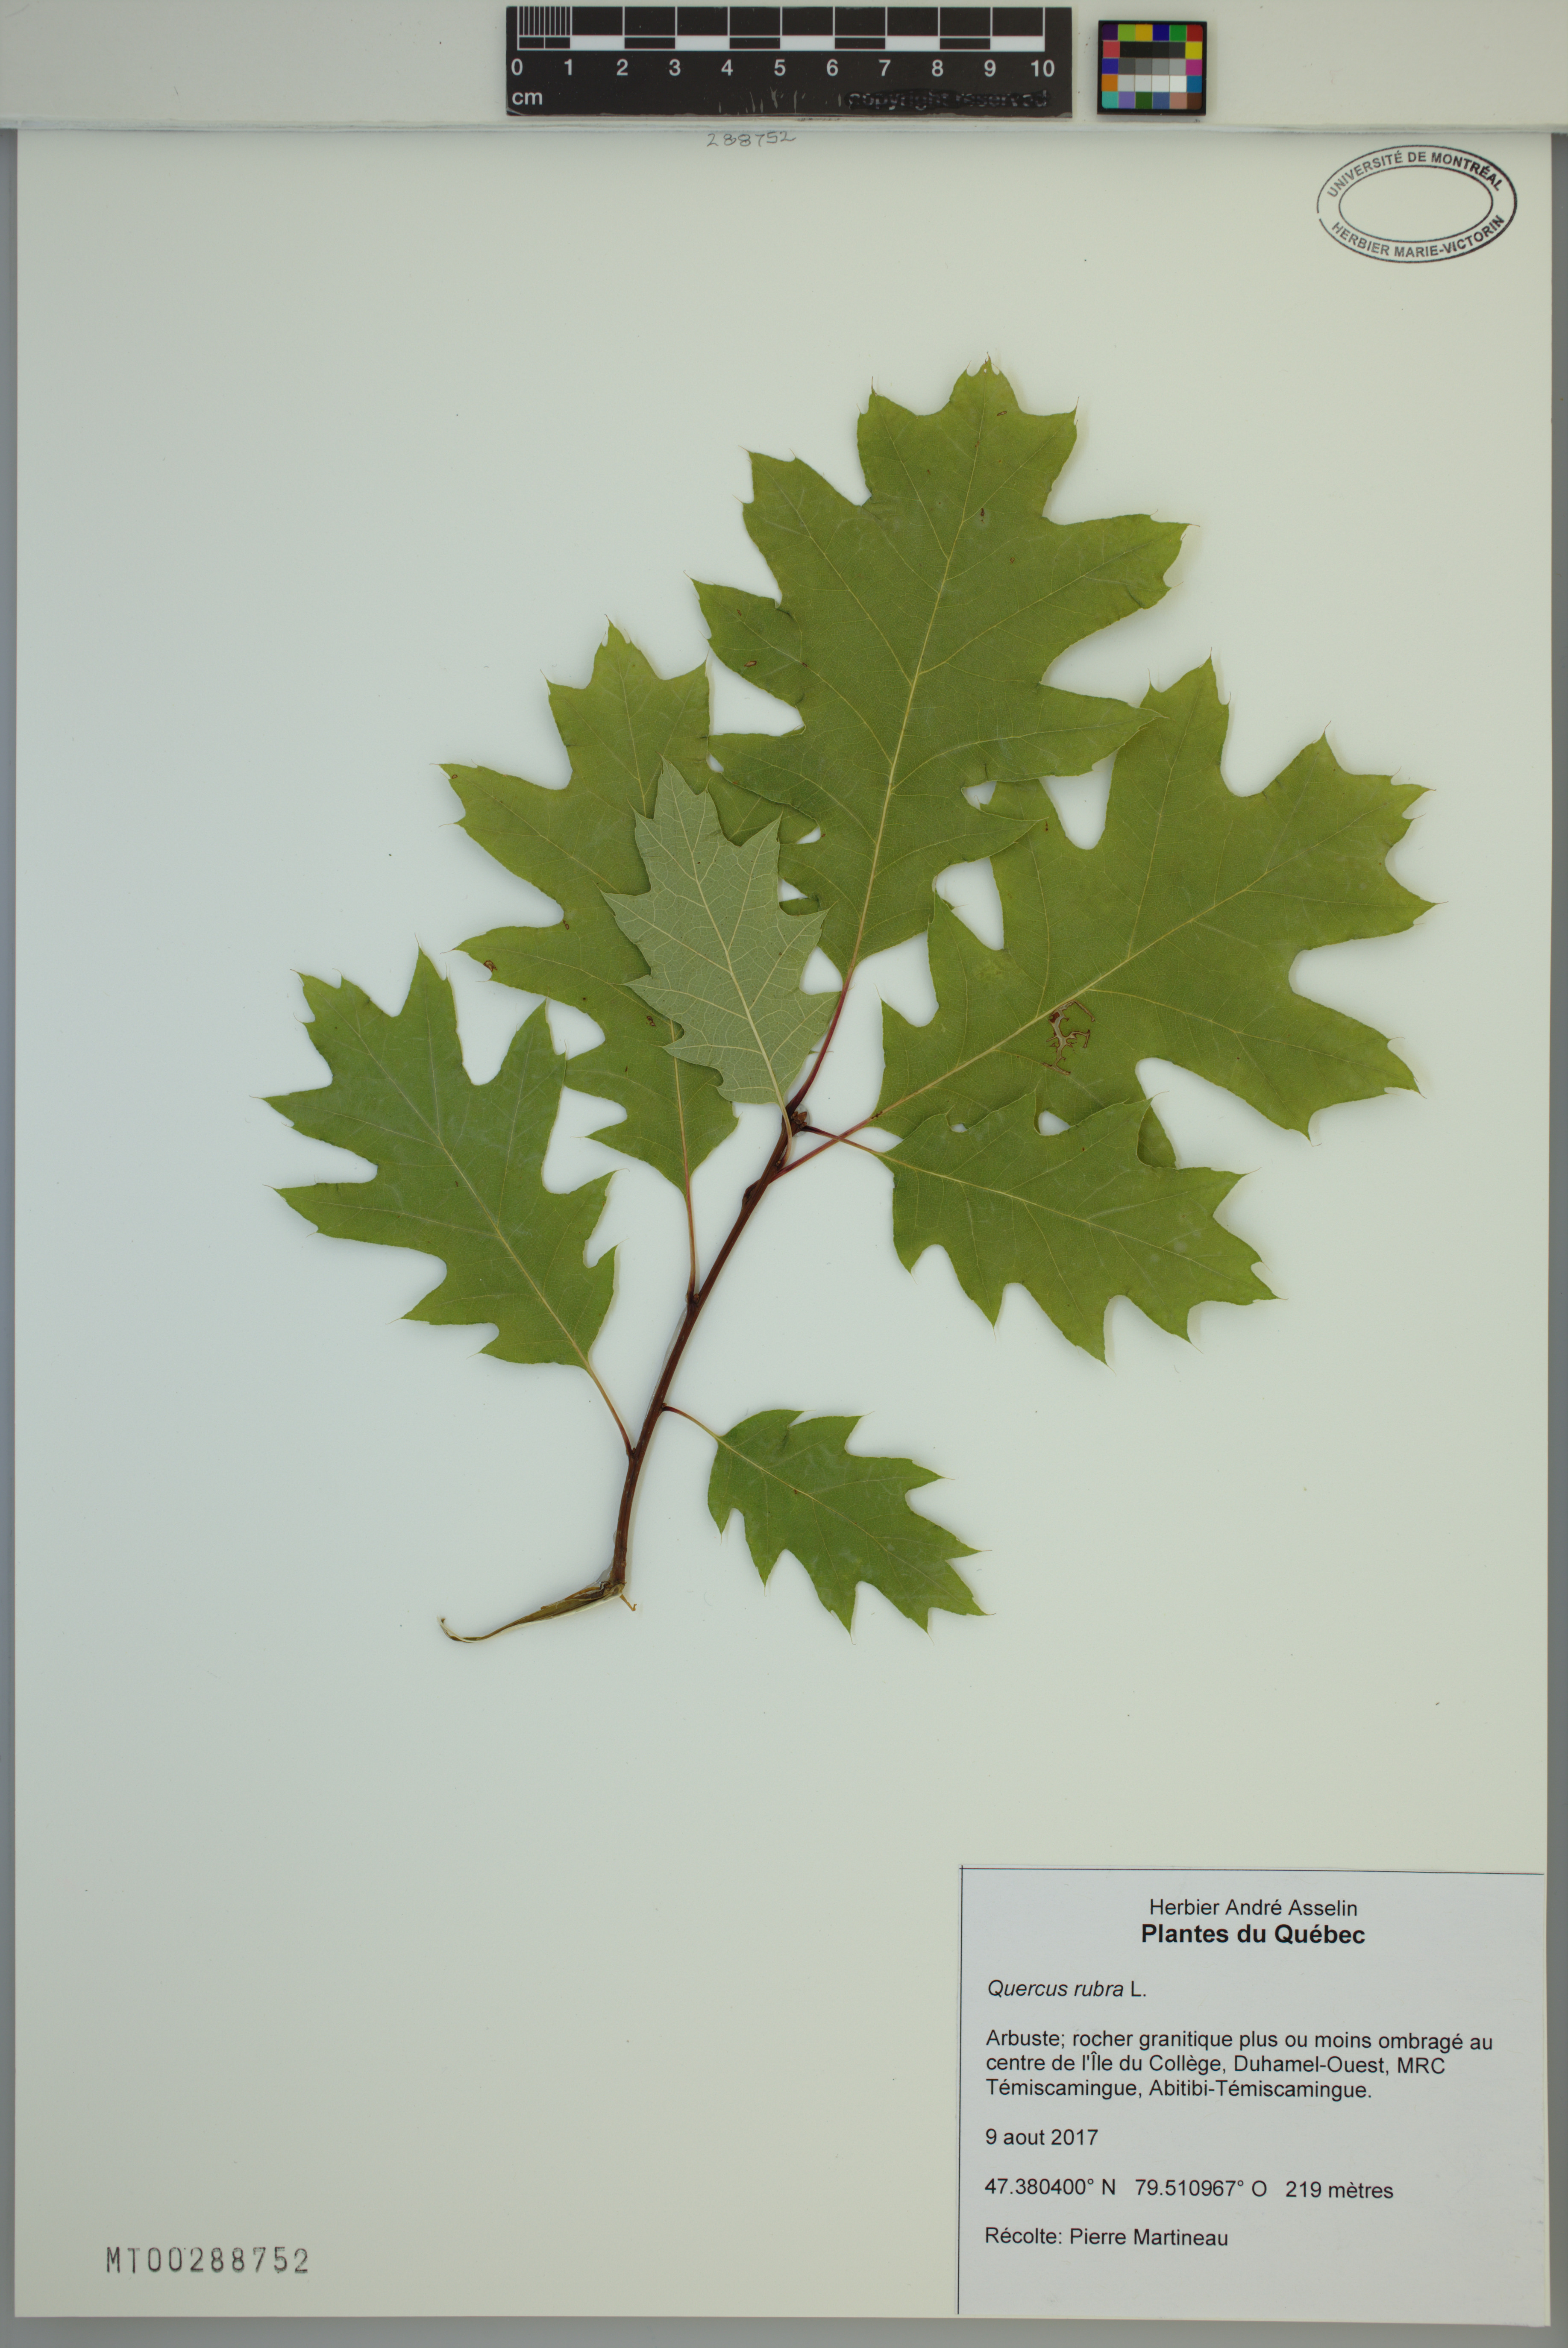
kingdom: Plantae
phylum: Tracheophyta
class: Magnoliopsida
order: Fagales
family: Fagaceae
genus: Quercus
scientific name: Quercus rubra
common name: Red oak
